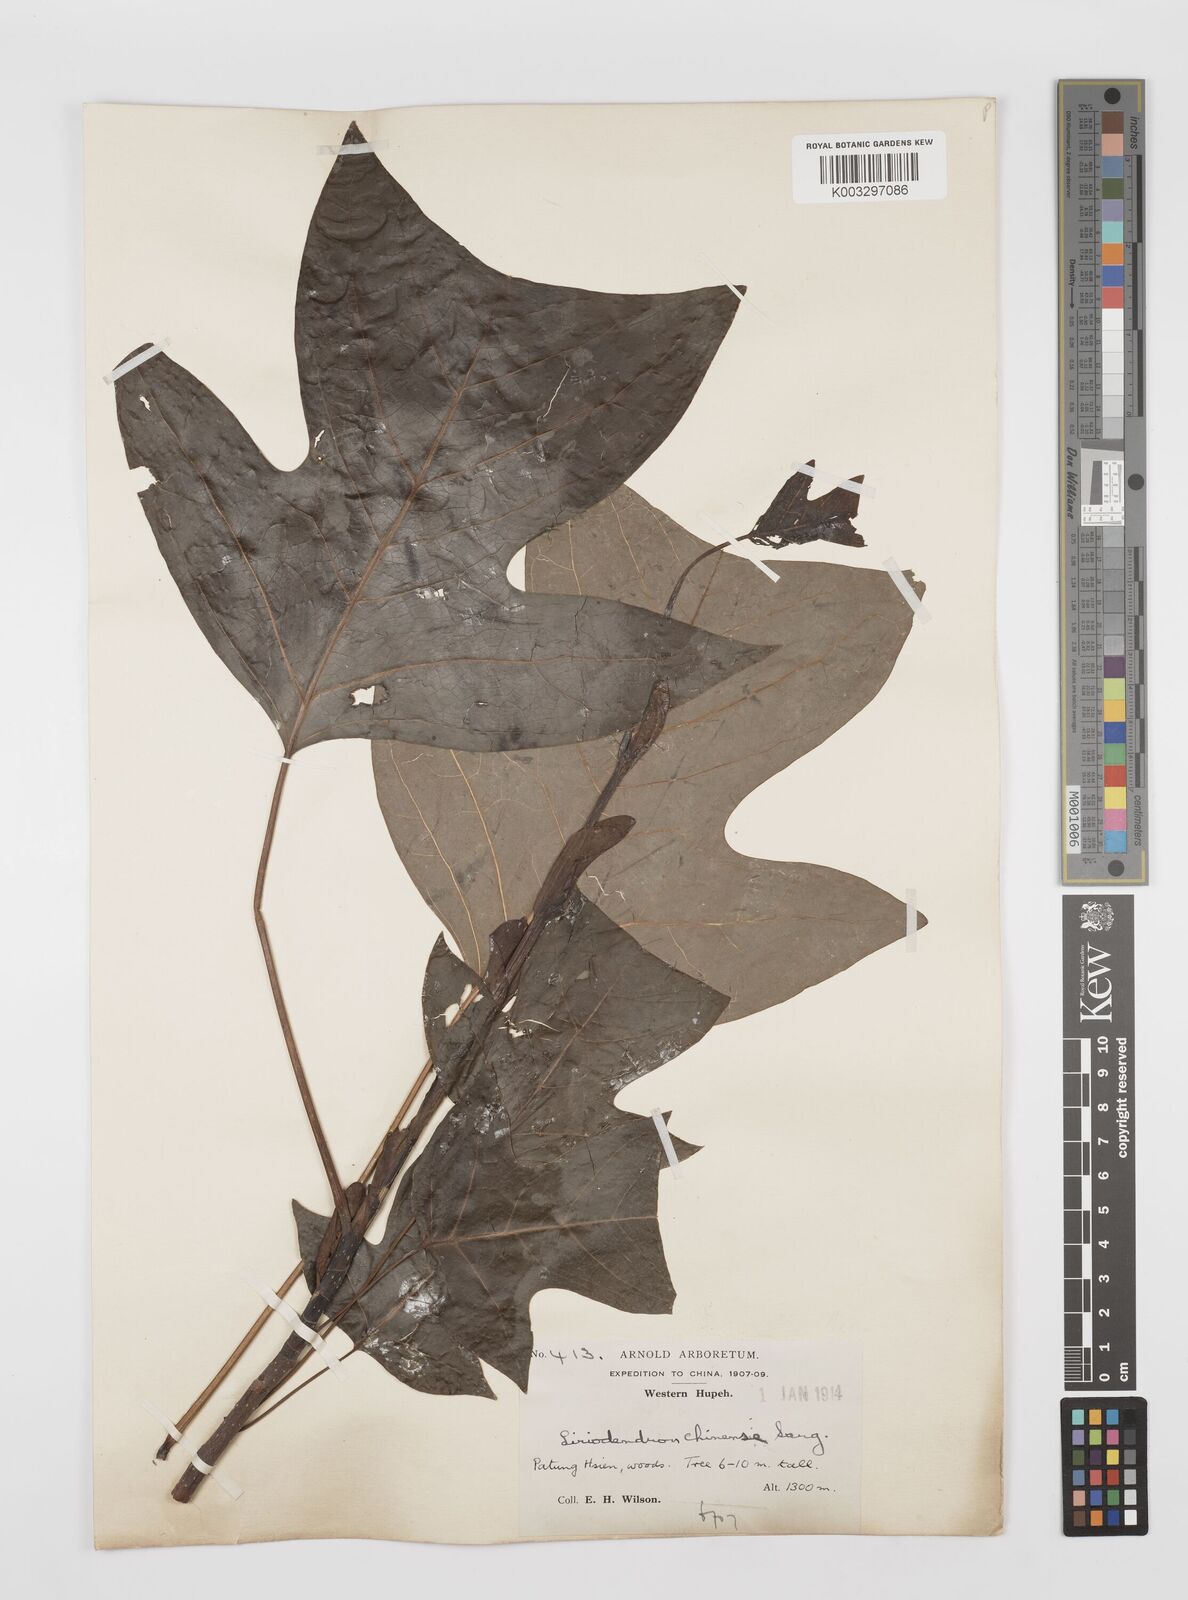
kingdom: Plantae
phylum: Tracheophyta
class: Magnoliopsida
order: Magnoliales
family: Magnoliaceae
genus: Liriodendron
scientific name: Liriodendron chinense
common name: Chinese tuliptree
